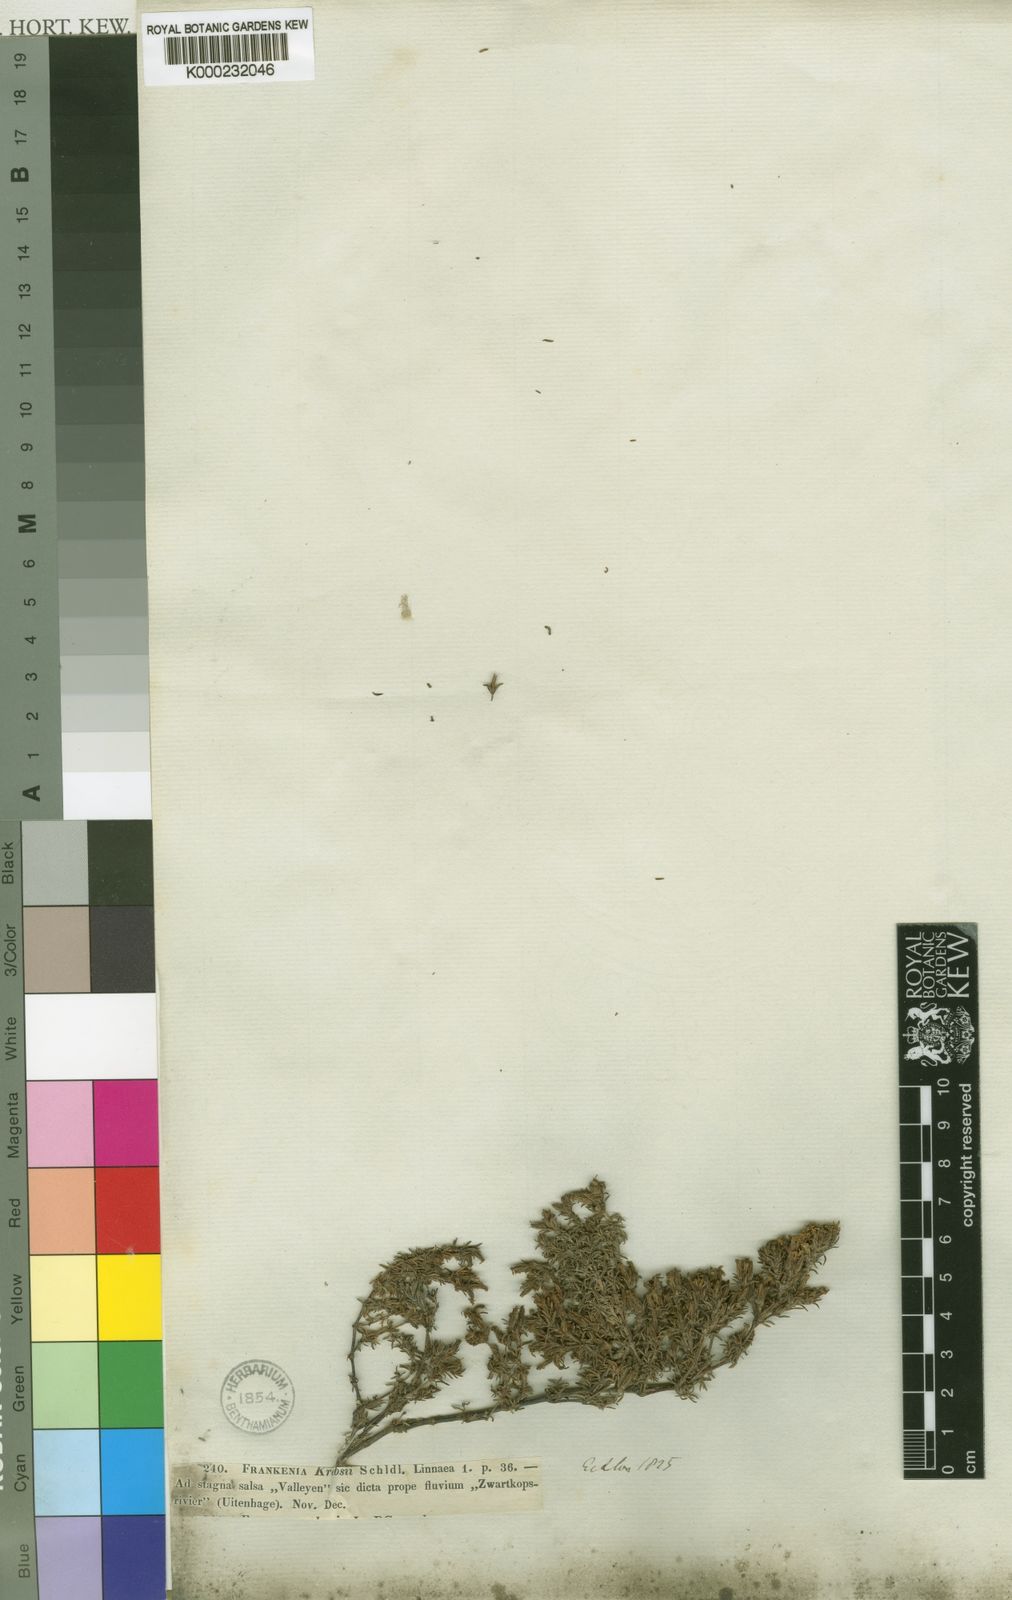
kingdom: Plantae
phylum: Tracheophyta
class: Magnoliopsida
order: Caryophyllales
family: Frankeniaceae
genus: Frankenia
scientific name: Frankenia laevis
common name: Sea-heath
